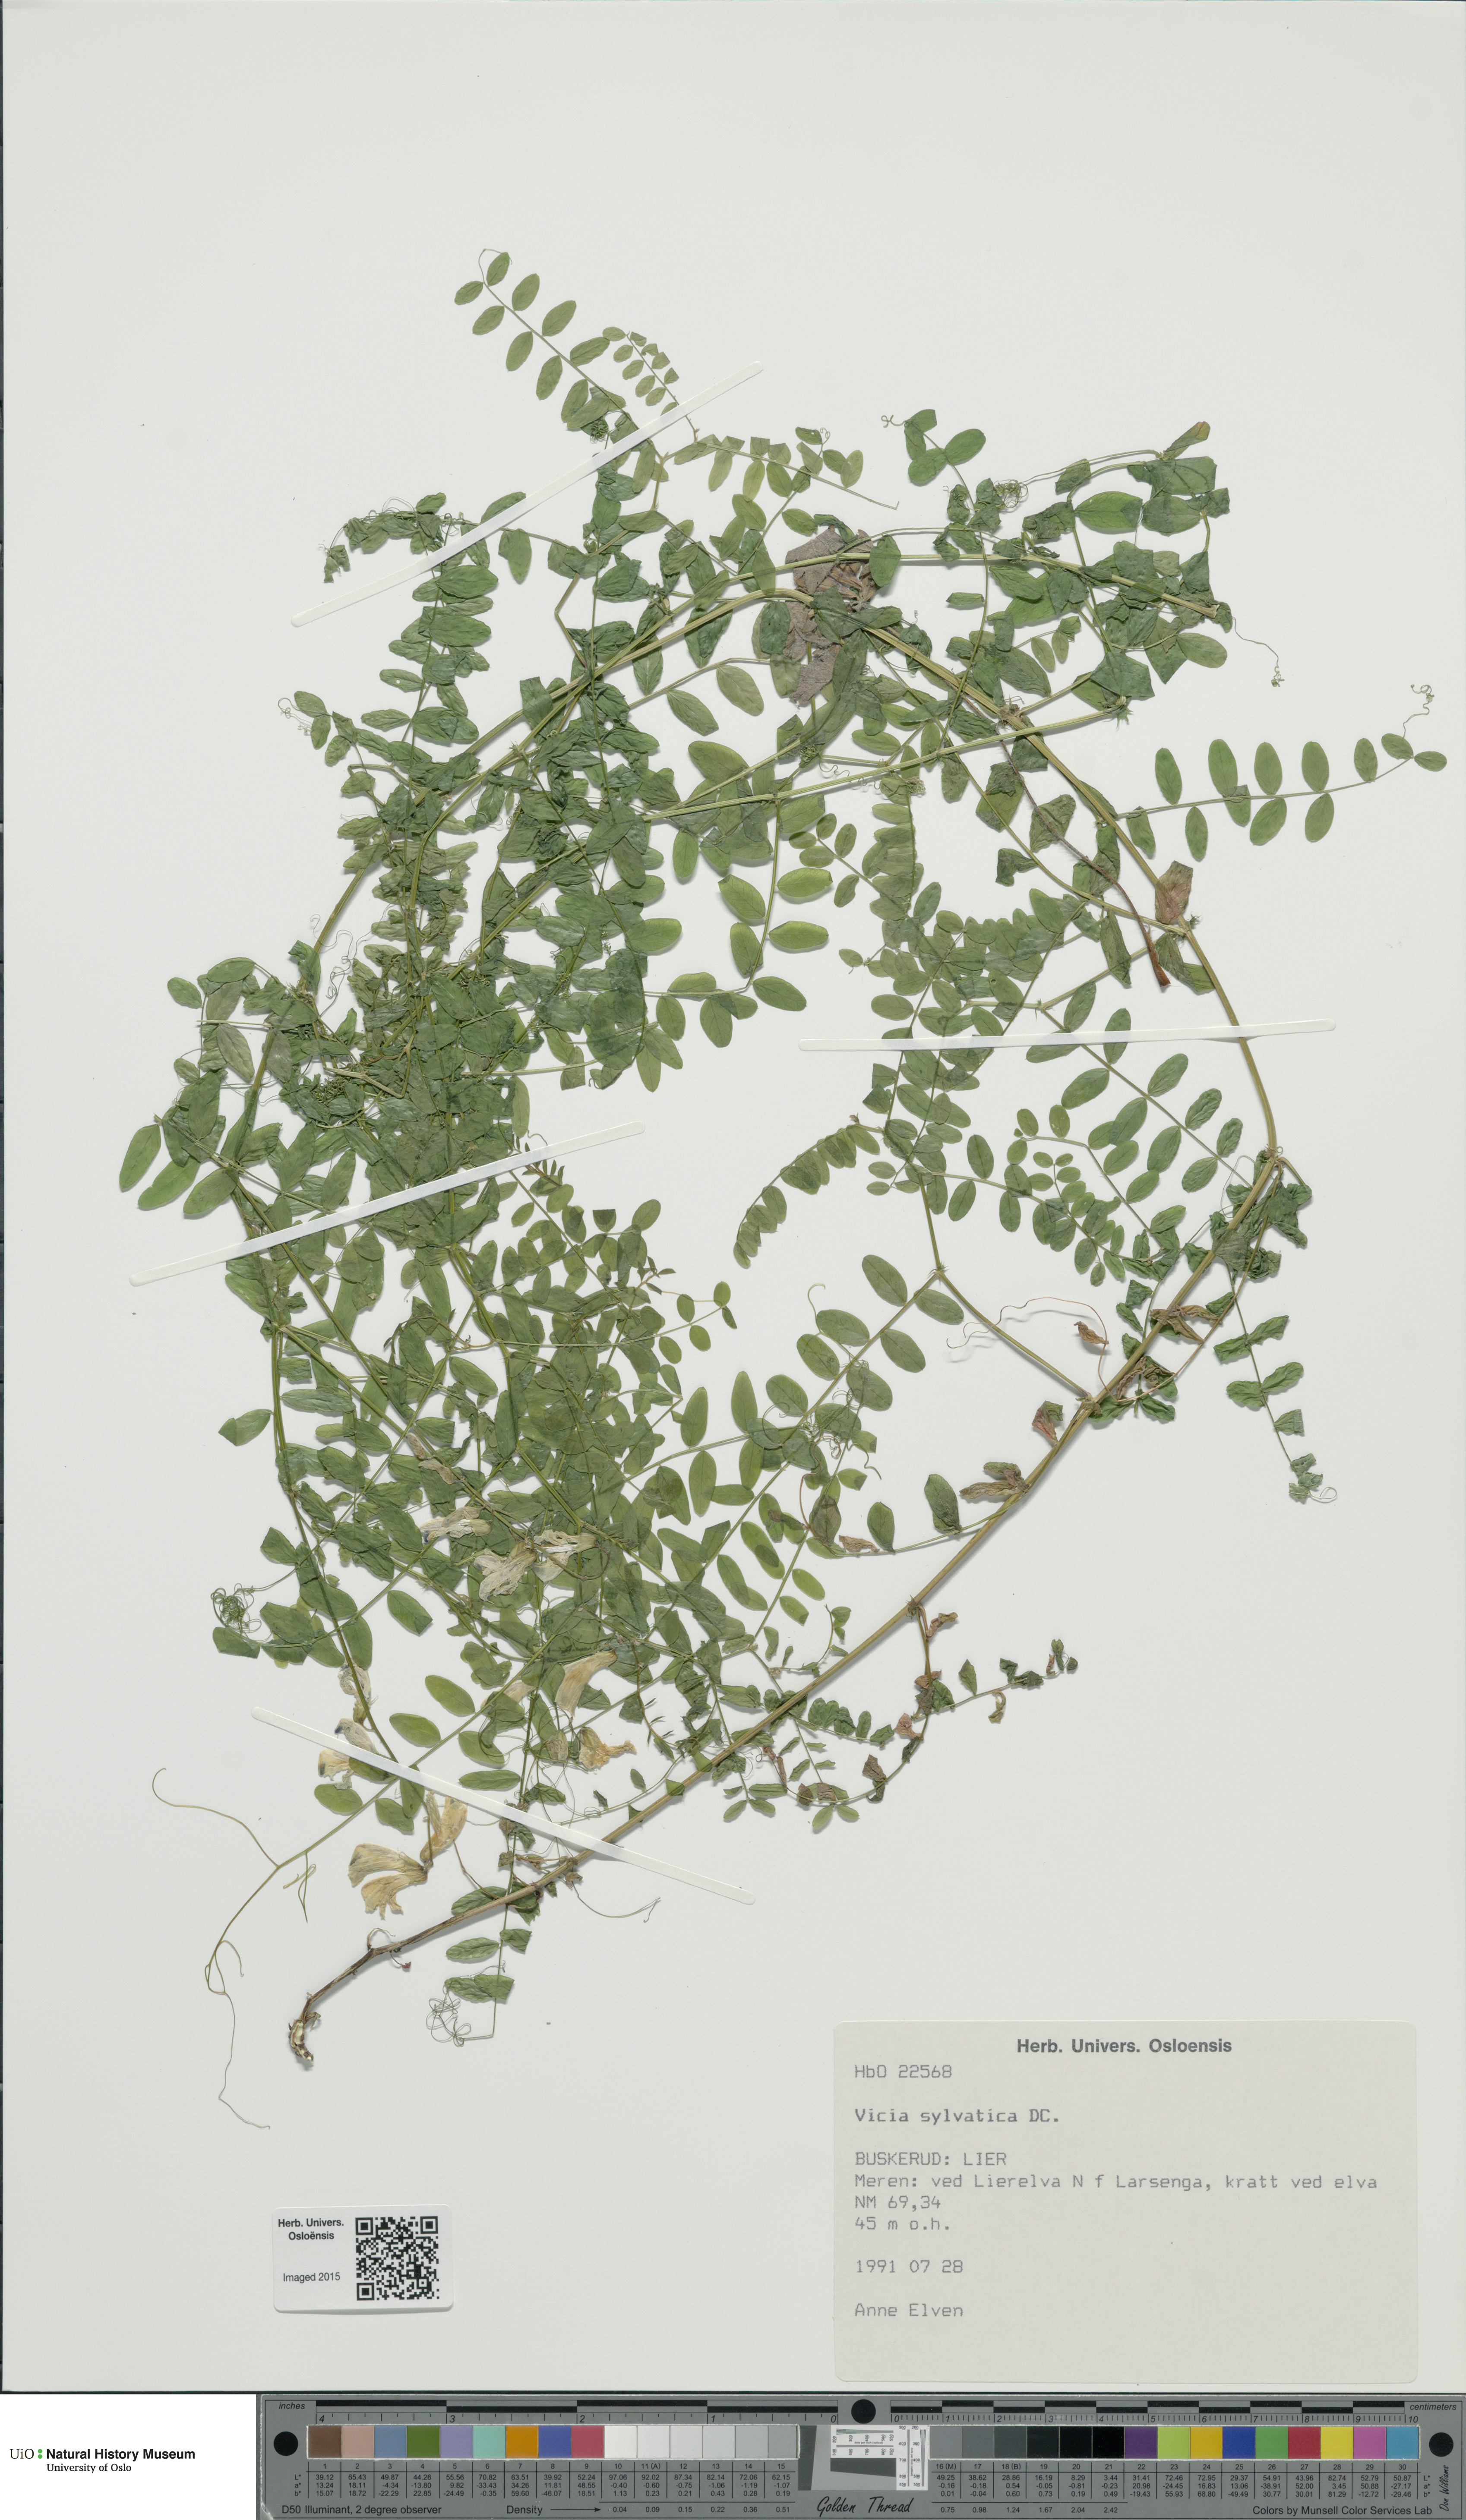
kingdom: Plantae
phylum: Tracheophyta
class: Magnoliopsida
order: Fabales
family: Fabaceae
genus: Vicia
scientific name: Vicia sylvatica
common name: Wood vetch
